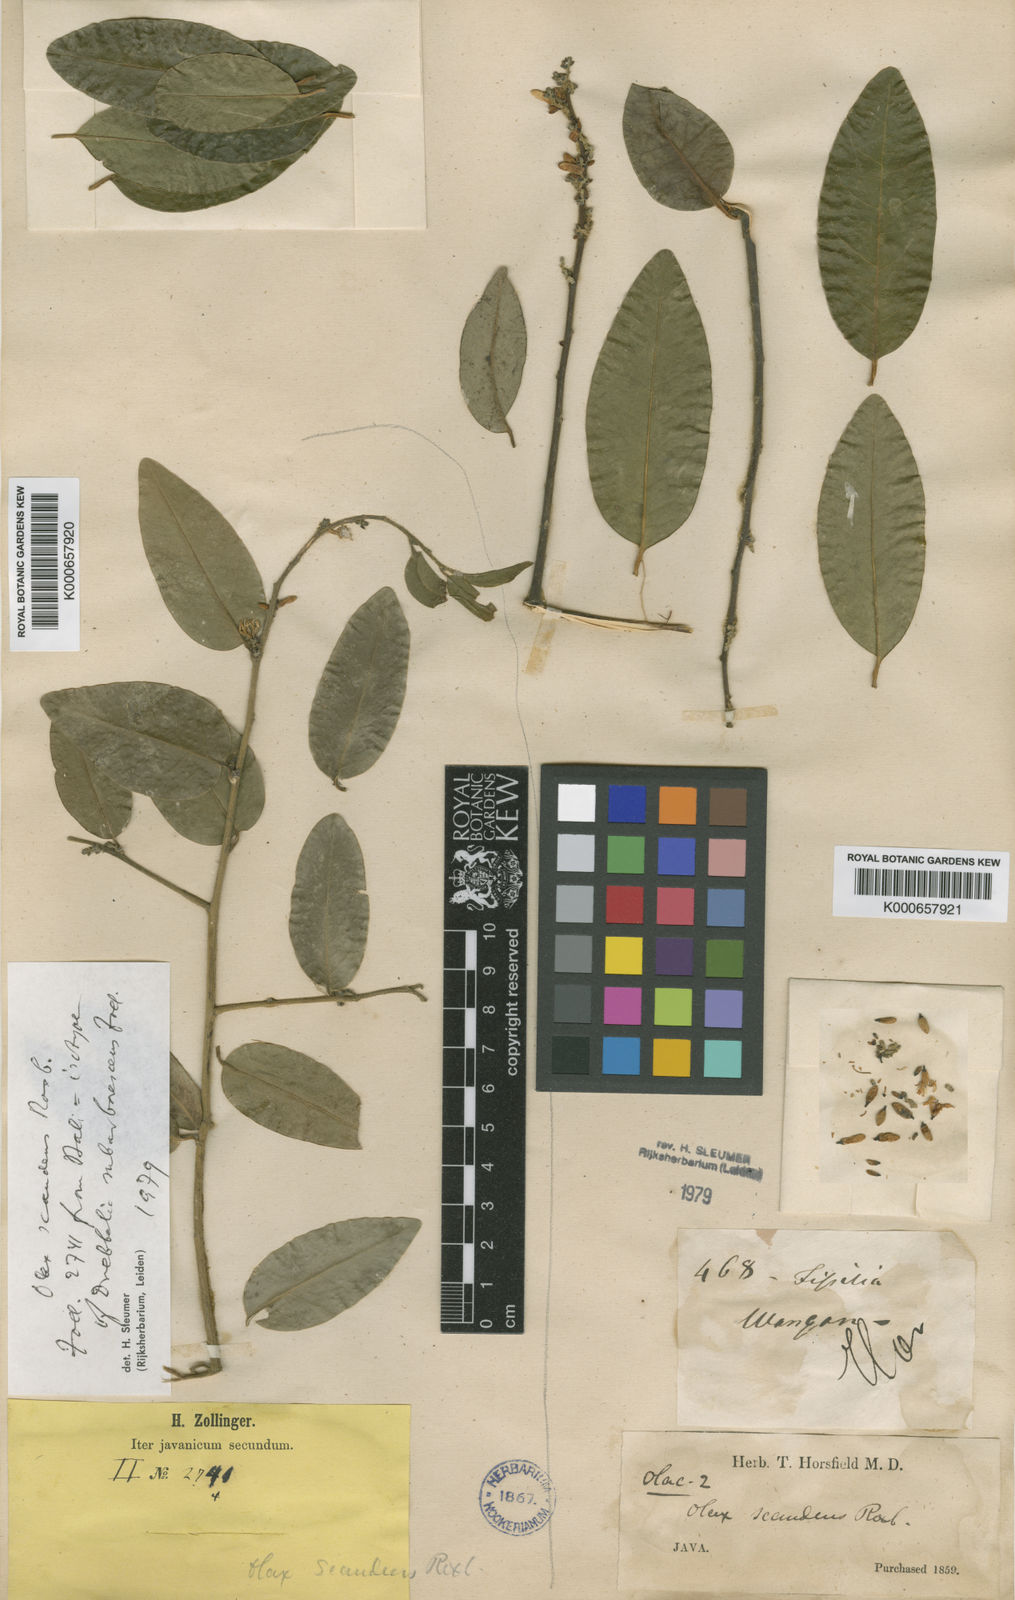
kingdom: Plantae
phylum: Tracheophyta
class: Magnoliopsida
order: Santalales
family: Olacaceae
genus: Olax
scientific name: Olax psittacorum
